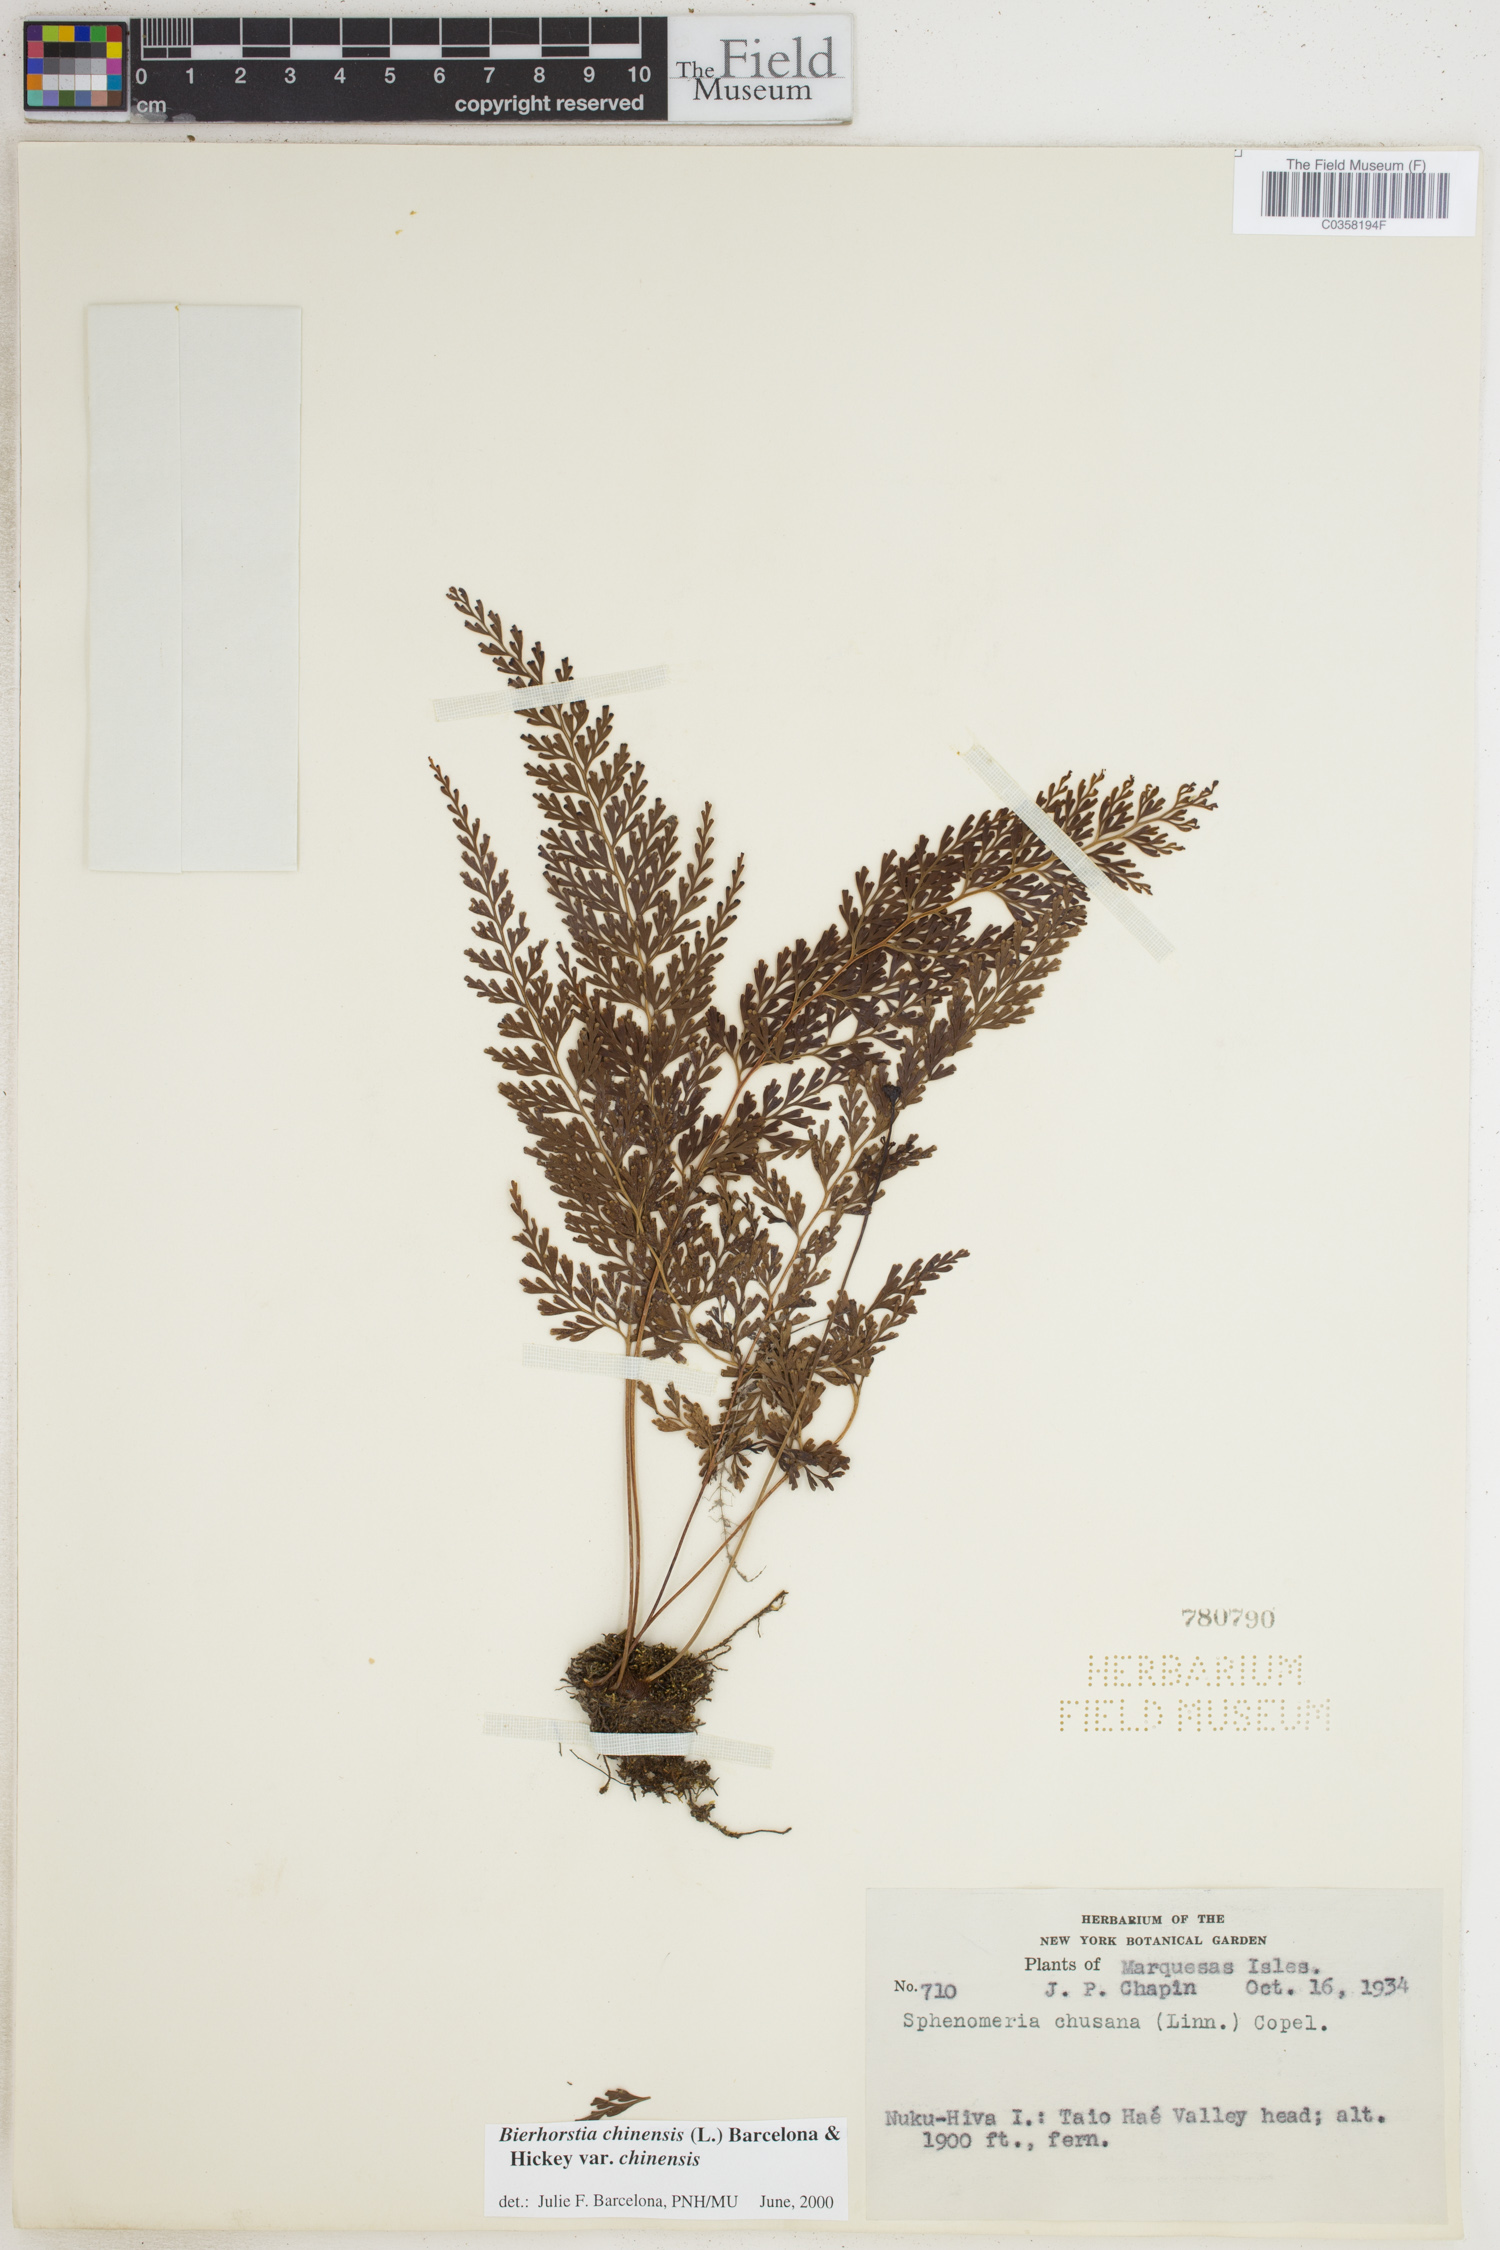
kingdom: Plantae
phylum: Tracheophyta
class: Polypodiopsida
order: Polypodiales
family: Lindsaeaceae
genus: Odontosoria
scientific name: Odontosoria chinensis
